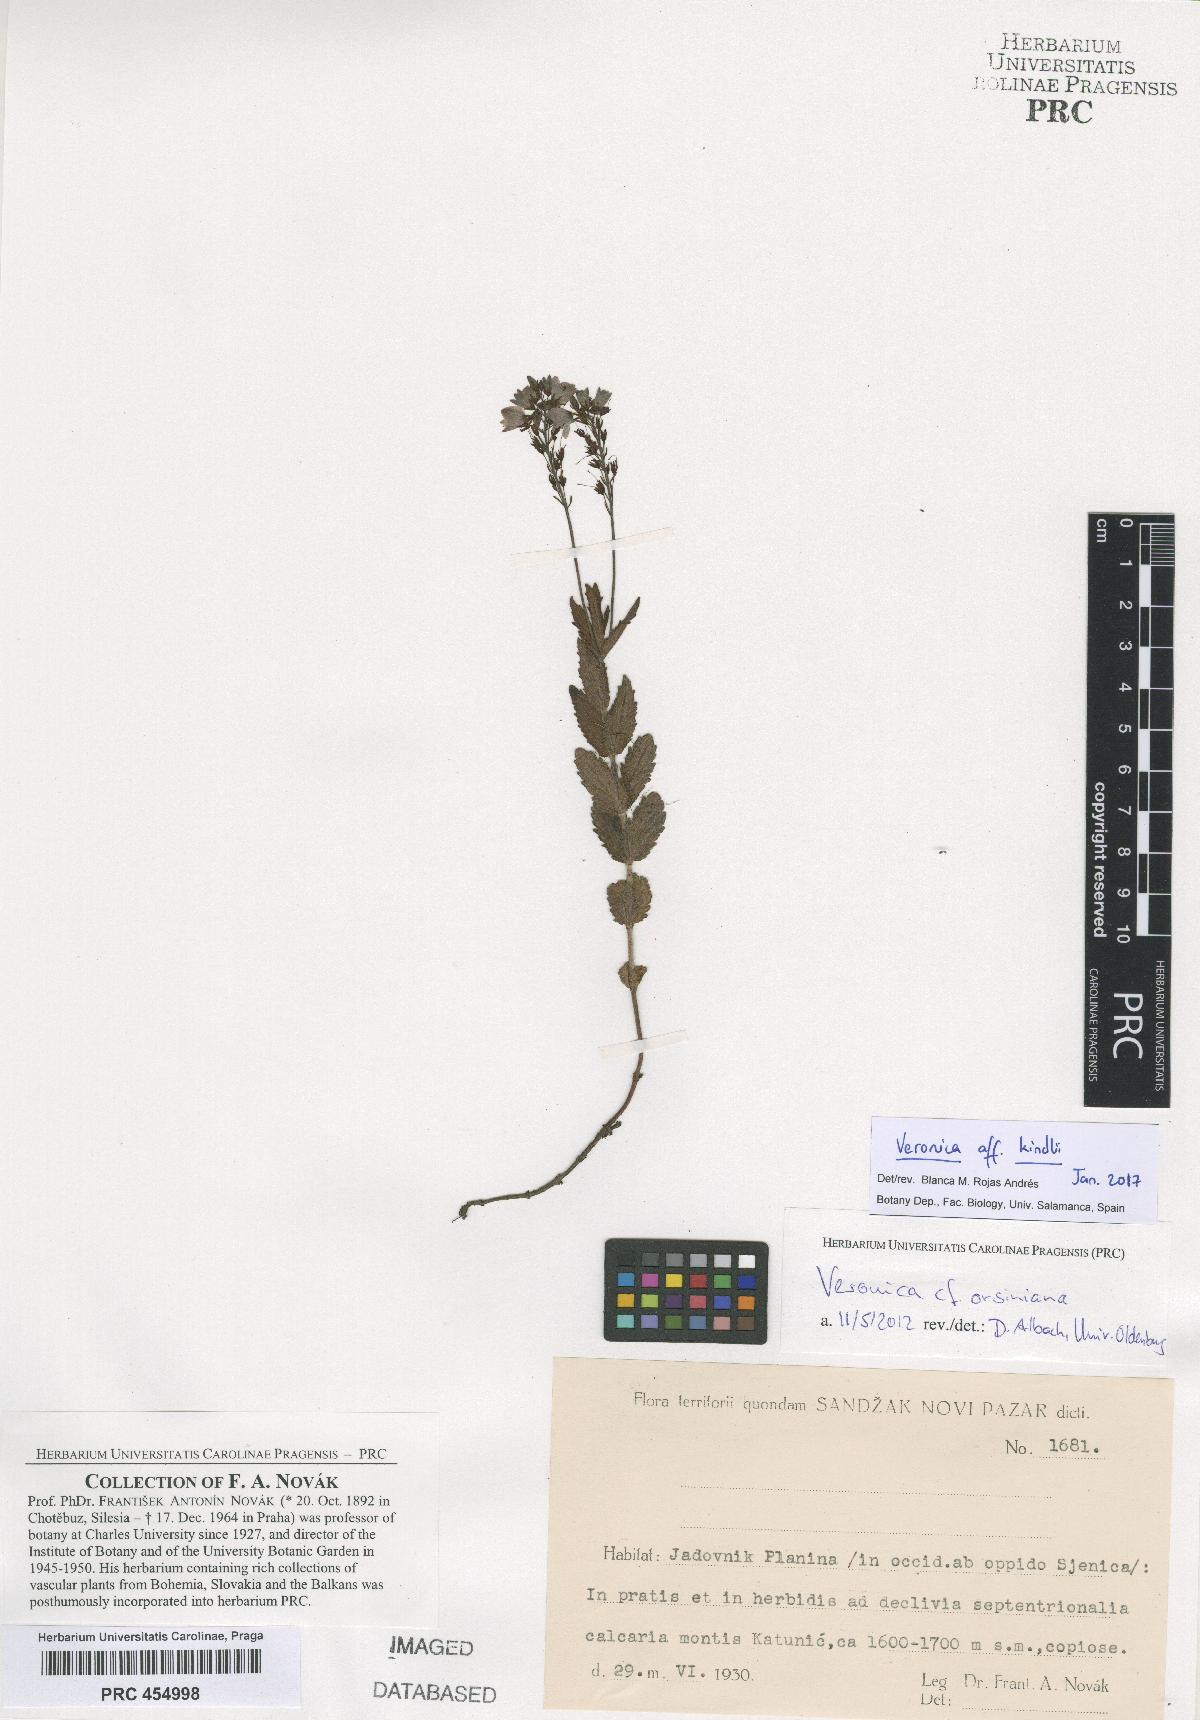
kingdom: Plantae
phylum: Tracheophyta
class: Magnoliopsida
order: Lamiales
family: Plantaginaceae
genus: Veronica
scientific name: Veronica orsiniana
